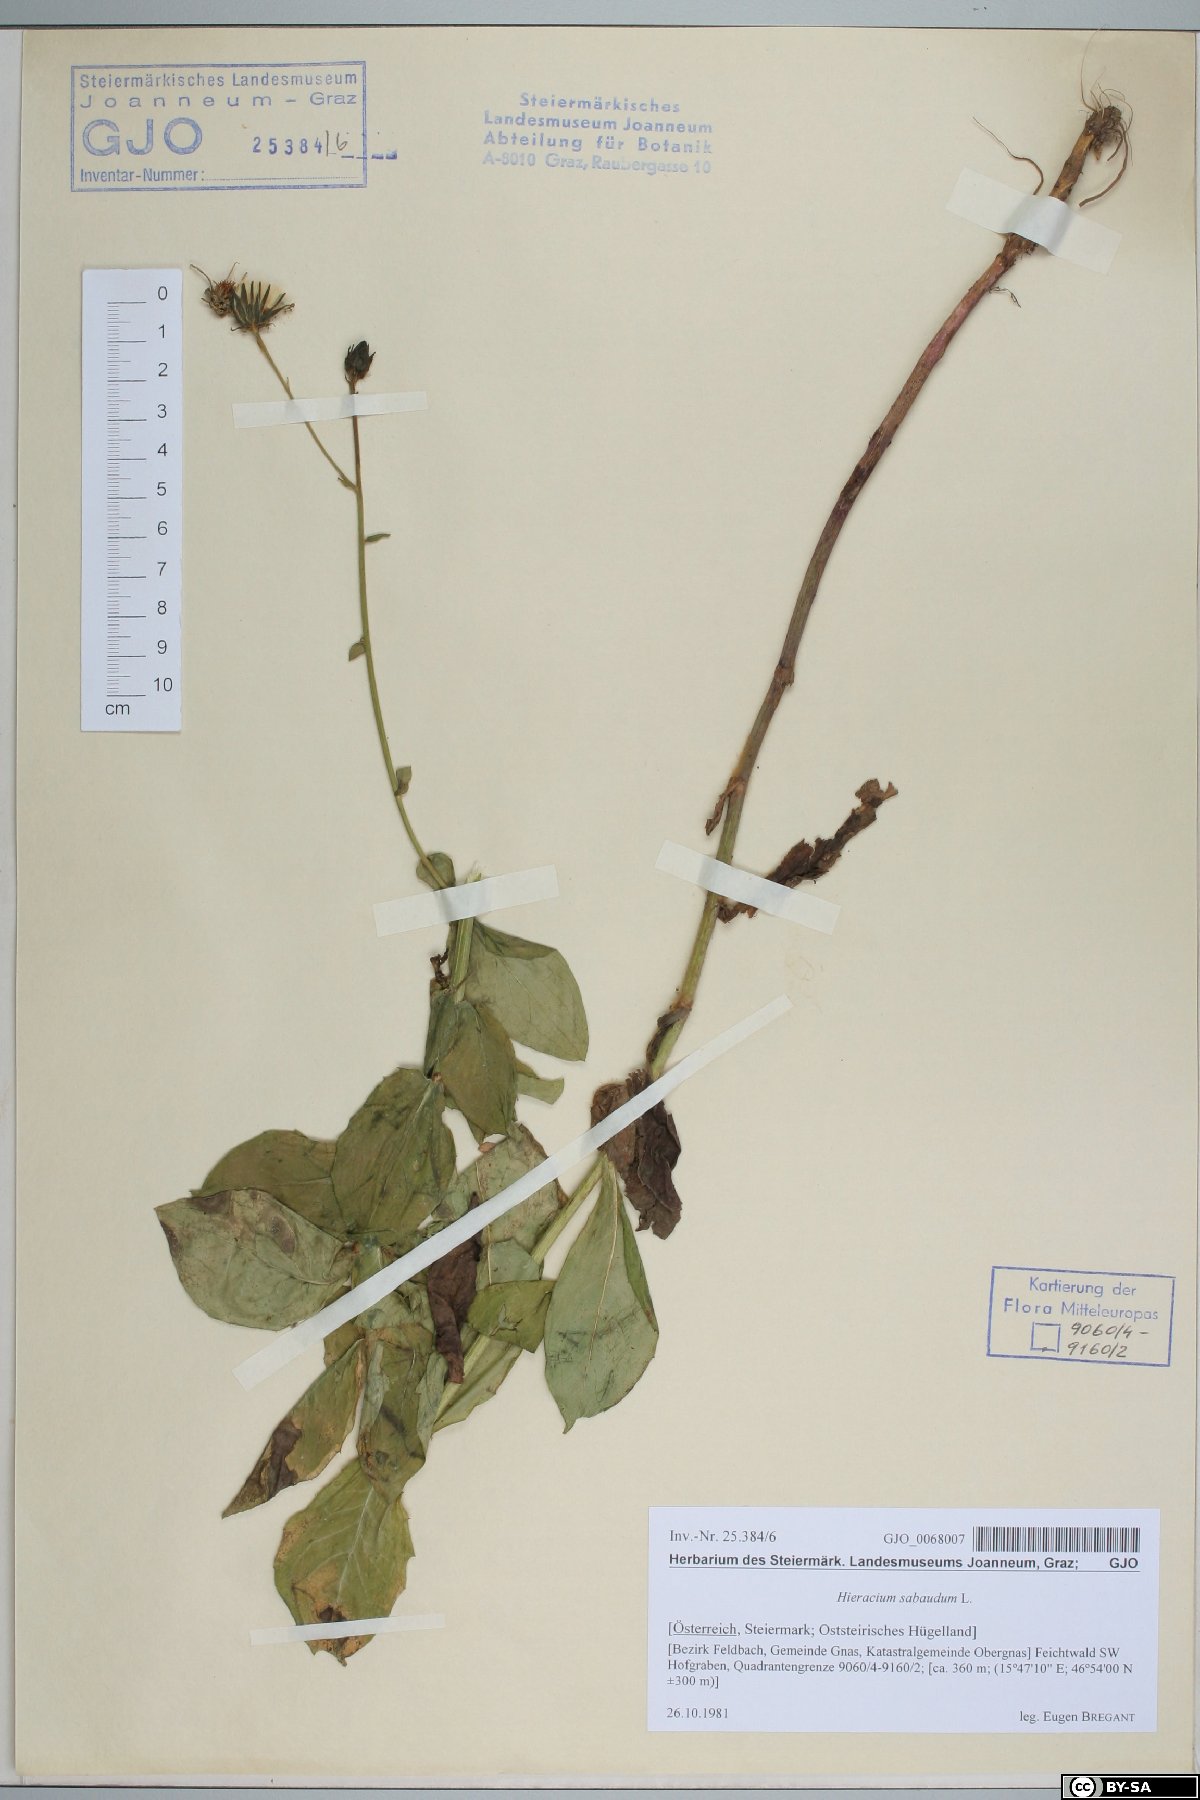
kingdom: Plantae
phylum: Tracheophyta
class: Magnoliopsida
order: Asterales
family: Asteraceae
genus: Hieracium
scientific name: Hieracium sabaudum
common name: New england hawkweed
